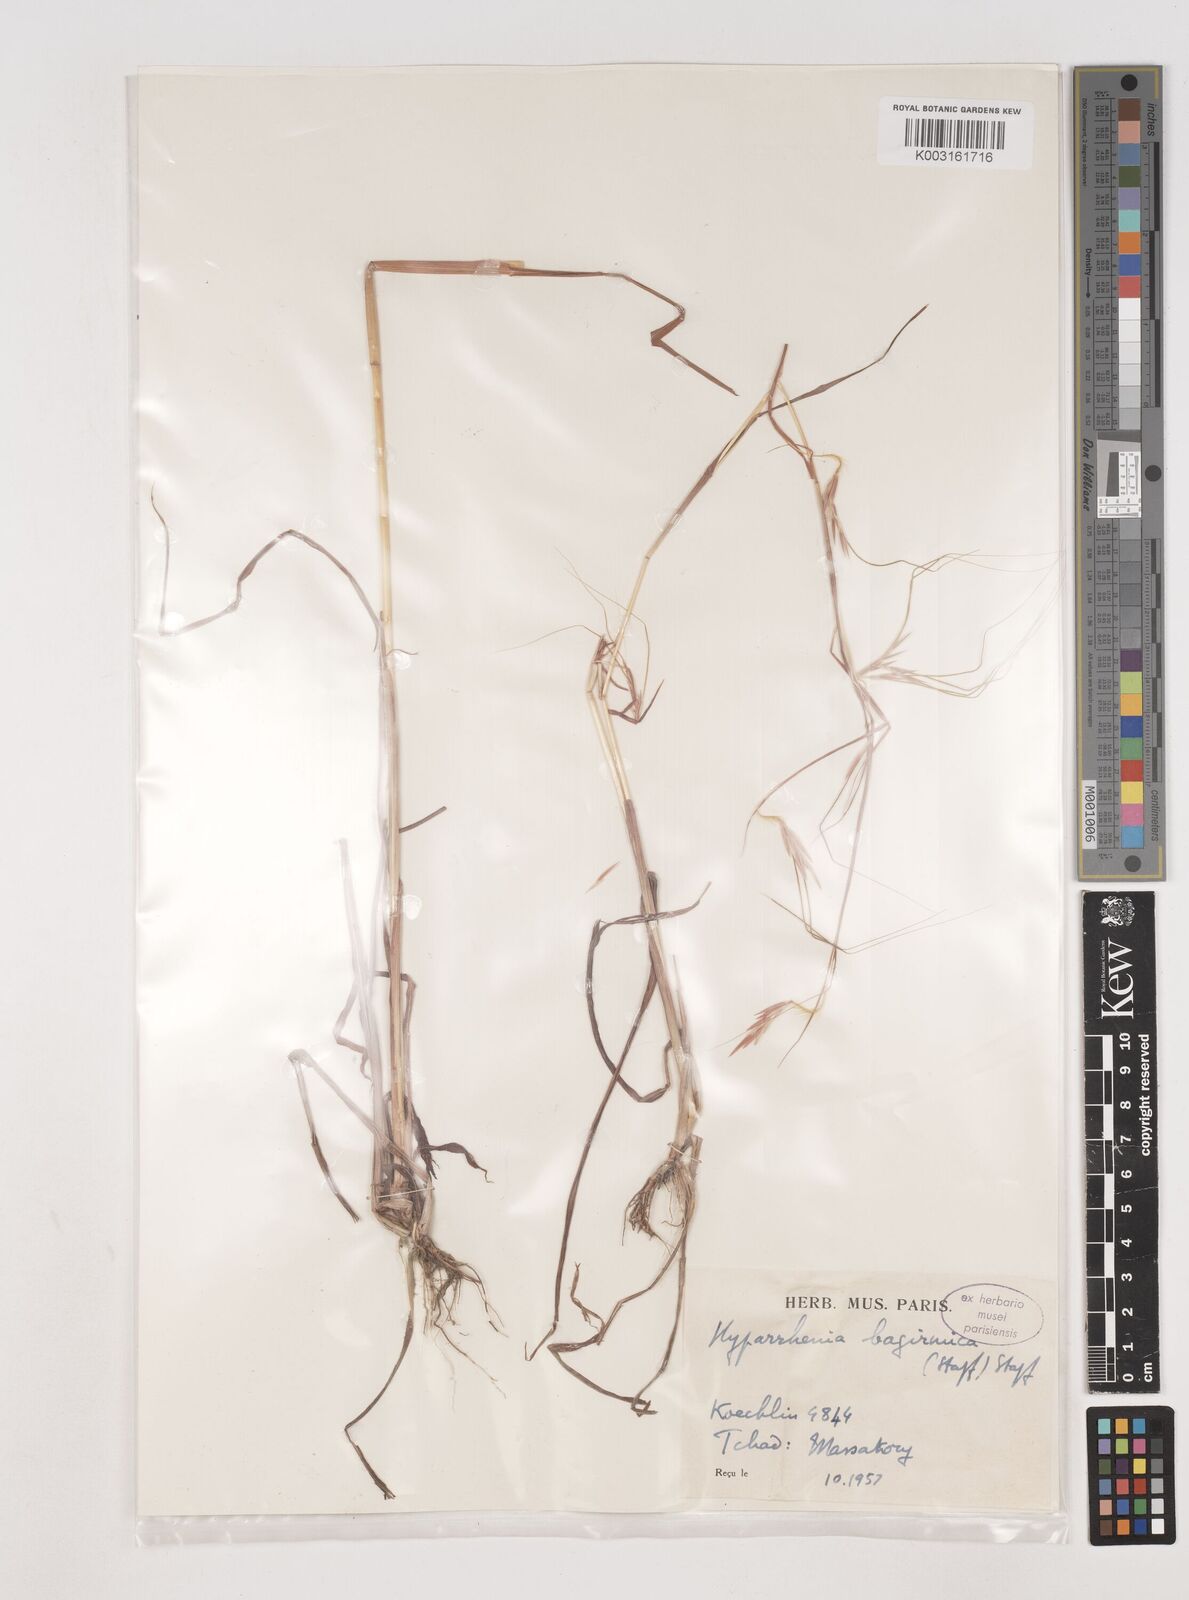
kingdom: Plantae
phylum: Tracheophyta
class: Liliopsida
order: Poales
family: Poaceae
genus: Hyparrhenia
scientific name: Hyparrhenia bagirmica
